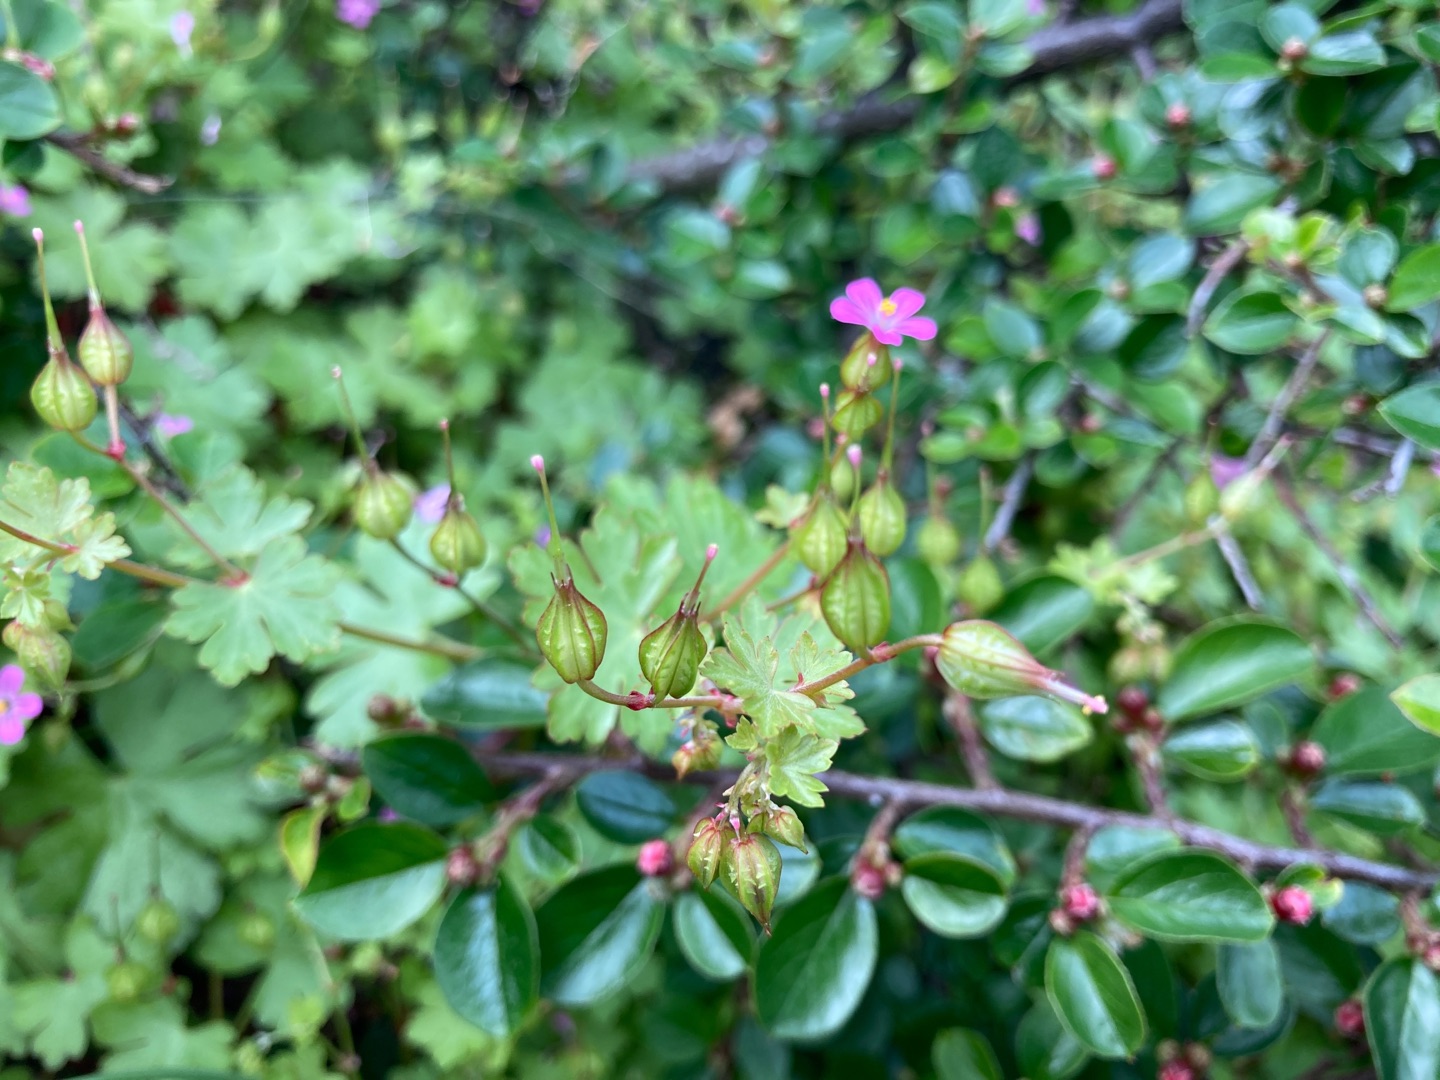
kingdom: Plantae
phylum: Tracheophyta
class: Magnoliopsida
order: Geraniales
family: Geraniaceae
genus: Geranium
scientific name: Geranium lucidum
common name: Skinnende storkenæb
